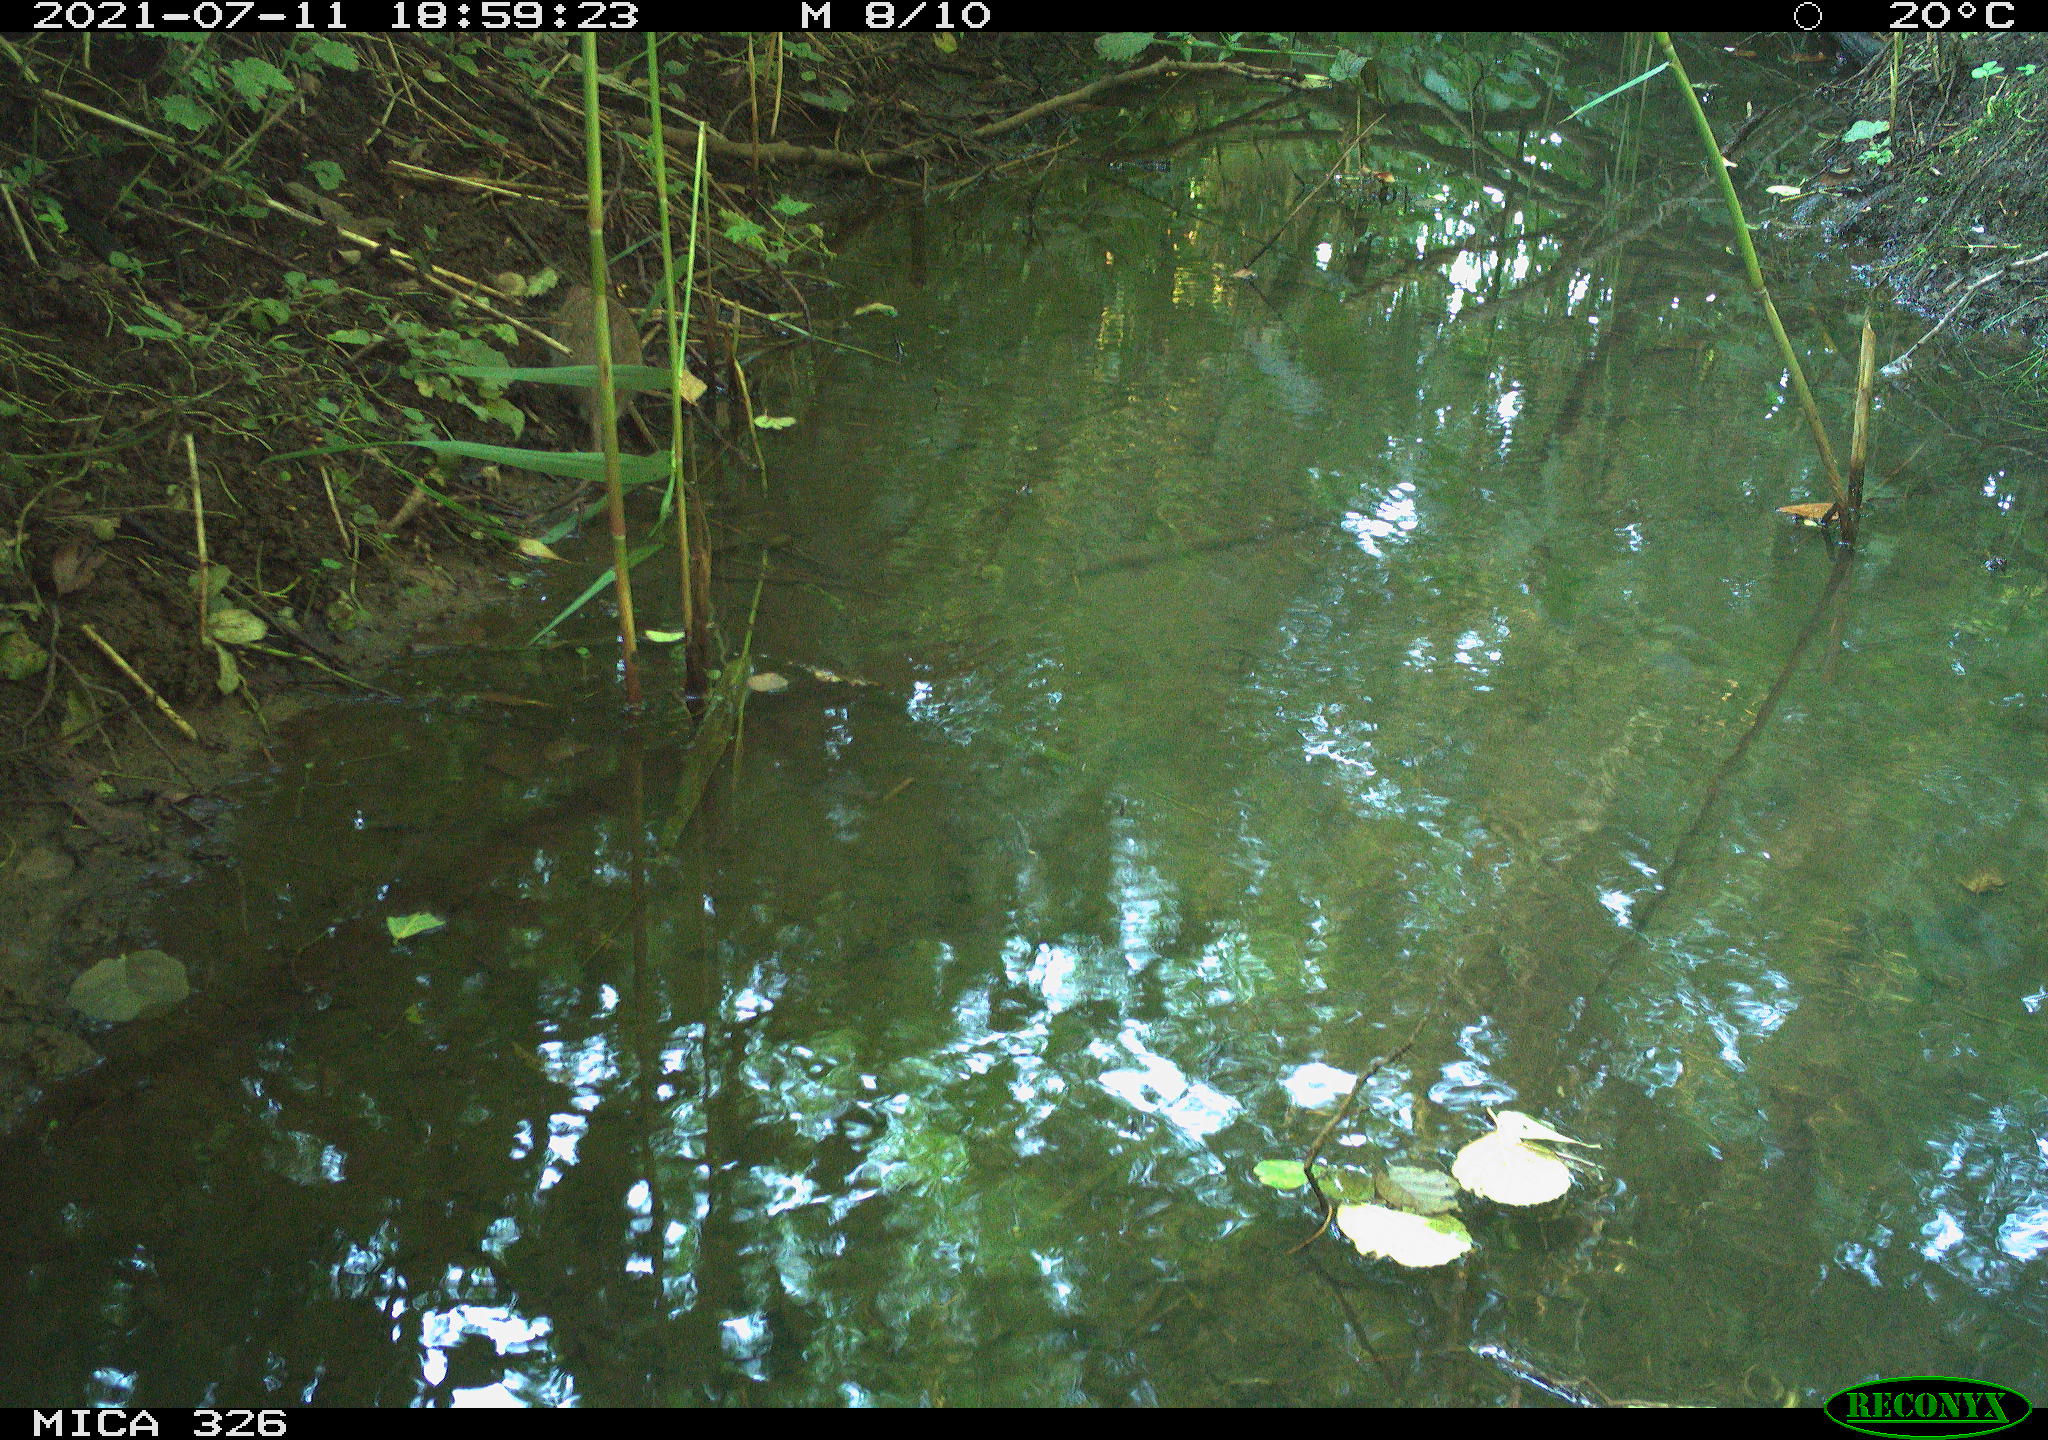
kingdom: Animalia
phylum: Chordata
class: Mammalia
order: Rodentia
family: Muridae
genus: Rattus
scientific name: Rattus norvegicus
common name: Brown rat
